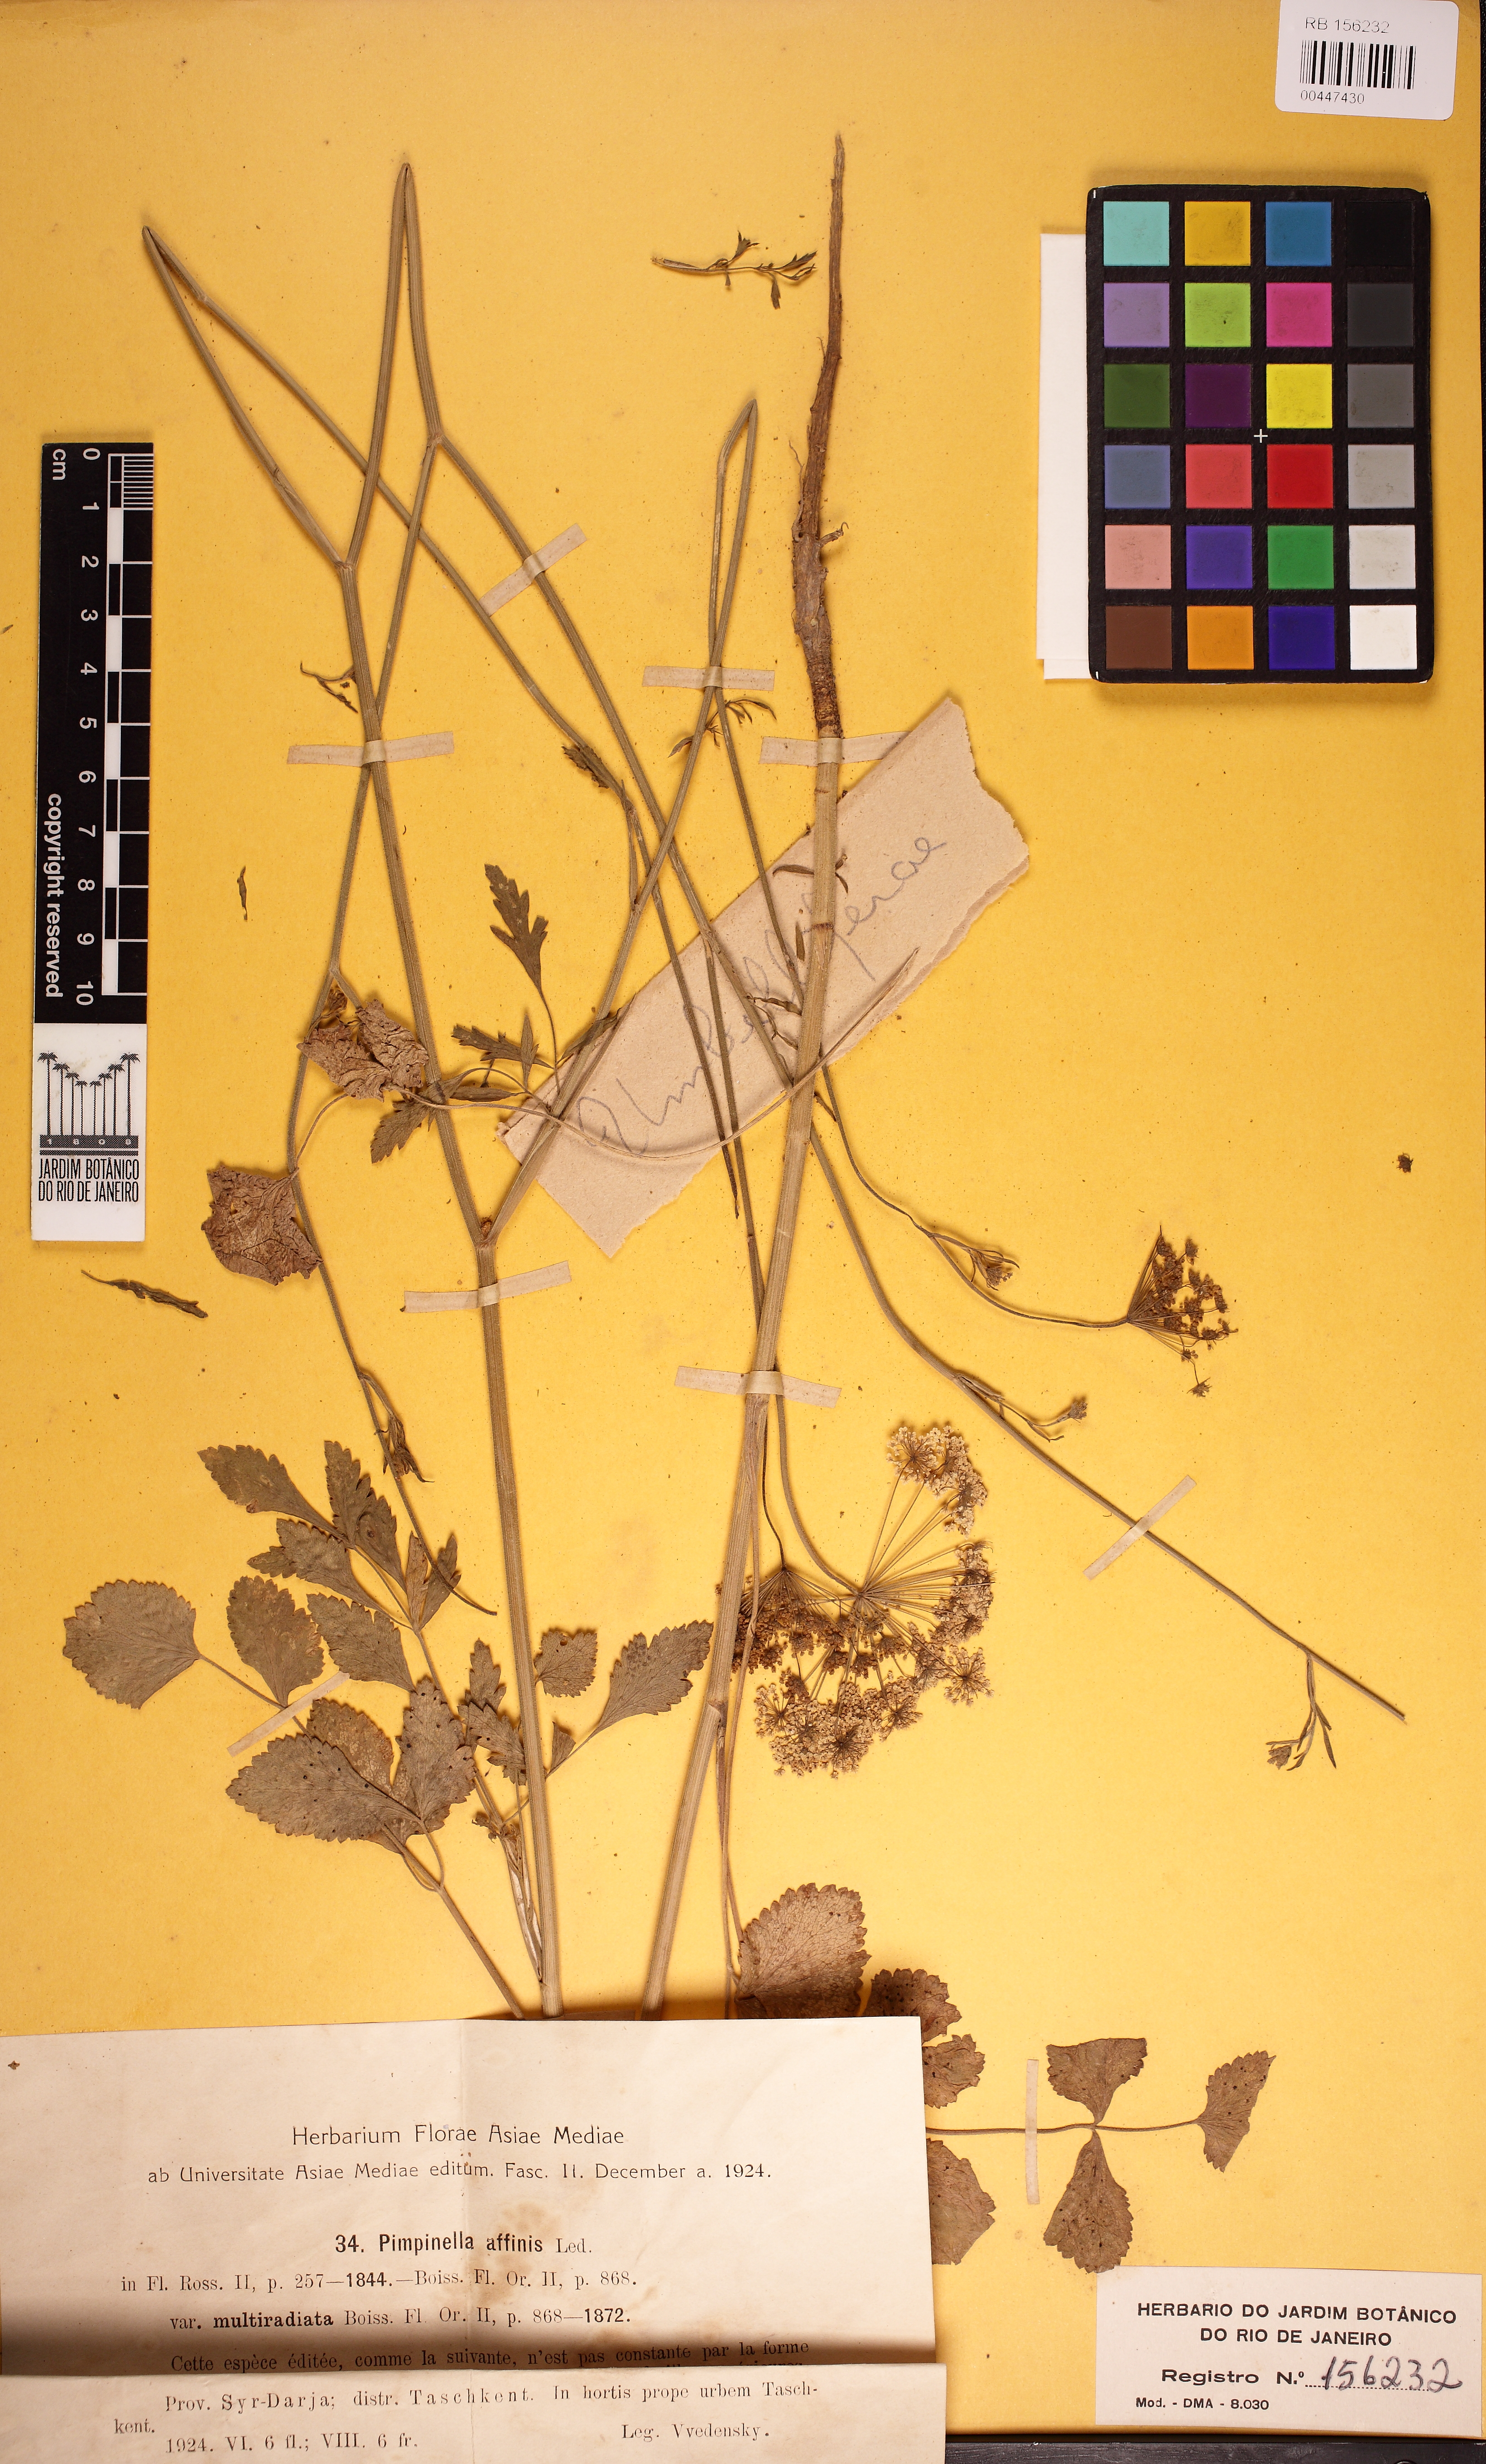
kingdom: Plantae
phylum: Tracheophyta
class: Magnoliopsida
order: Apiales
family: Apiaceae
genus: Pimpinella
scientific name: Pimpinella affinis
